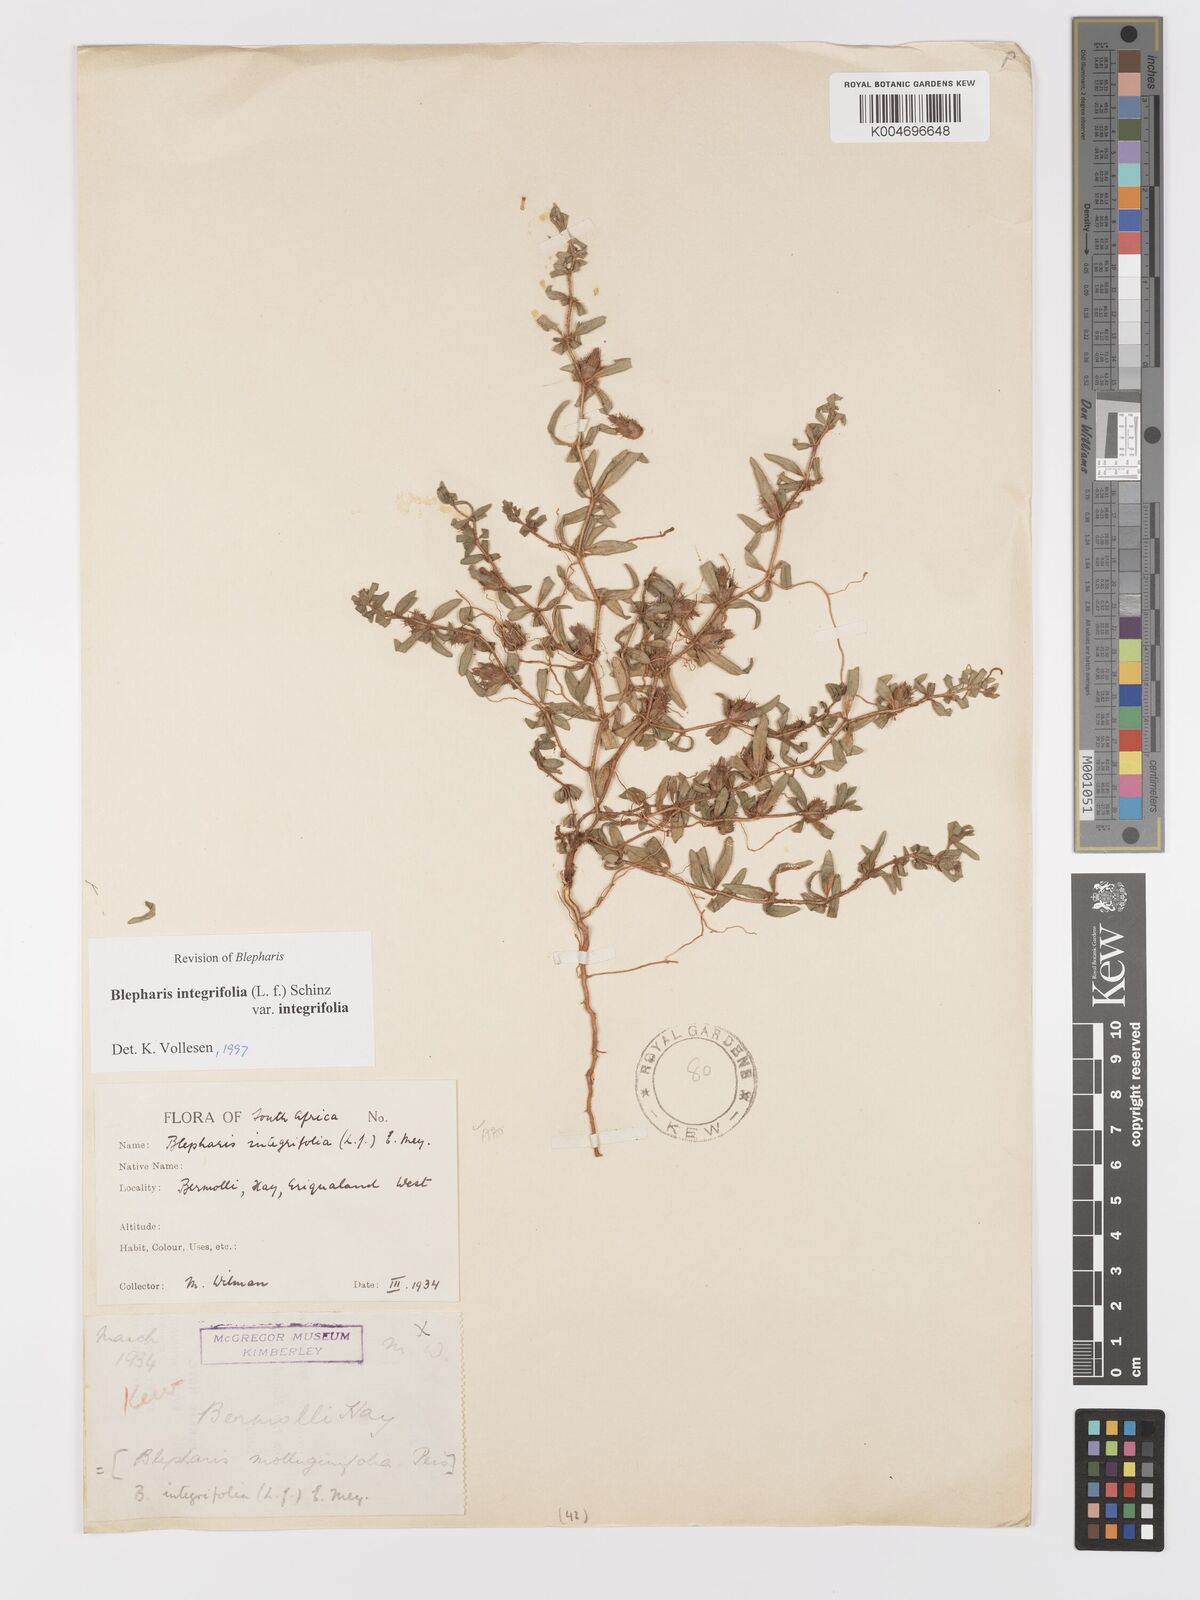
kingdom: Plantae
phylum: Tracheophyta
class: Magnoliopsida
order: Lamiales
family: Acanthaceae
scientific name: Acanthaceae
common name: Acanthaceae
